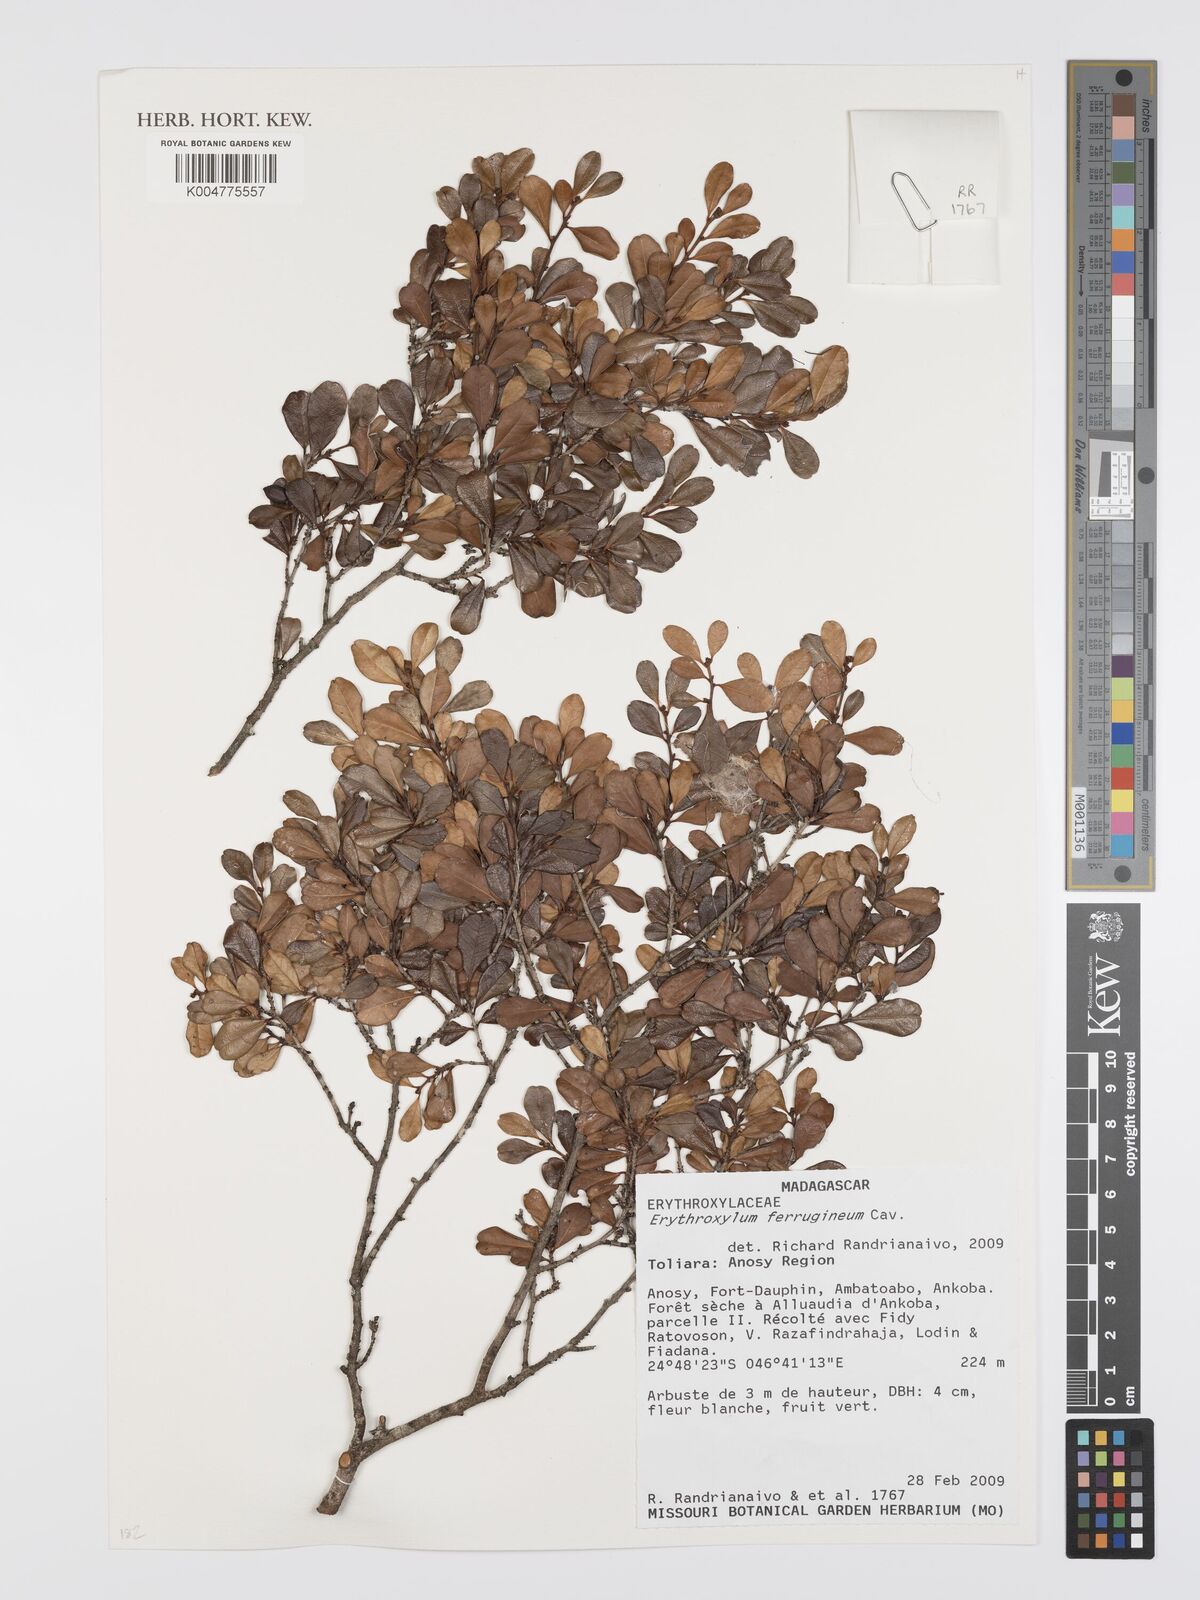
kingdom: Plantae
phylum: Tracheophyta
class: Magnoliopsida
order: Malpighiales
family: Erythroxylaceae
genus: Erythroxylum
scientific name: Erythroxylum ferrugineum
